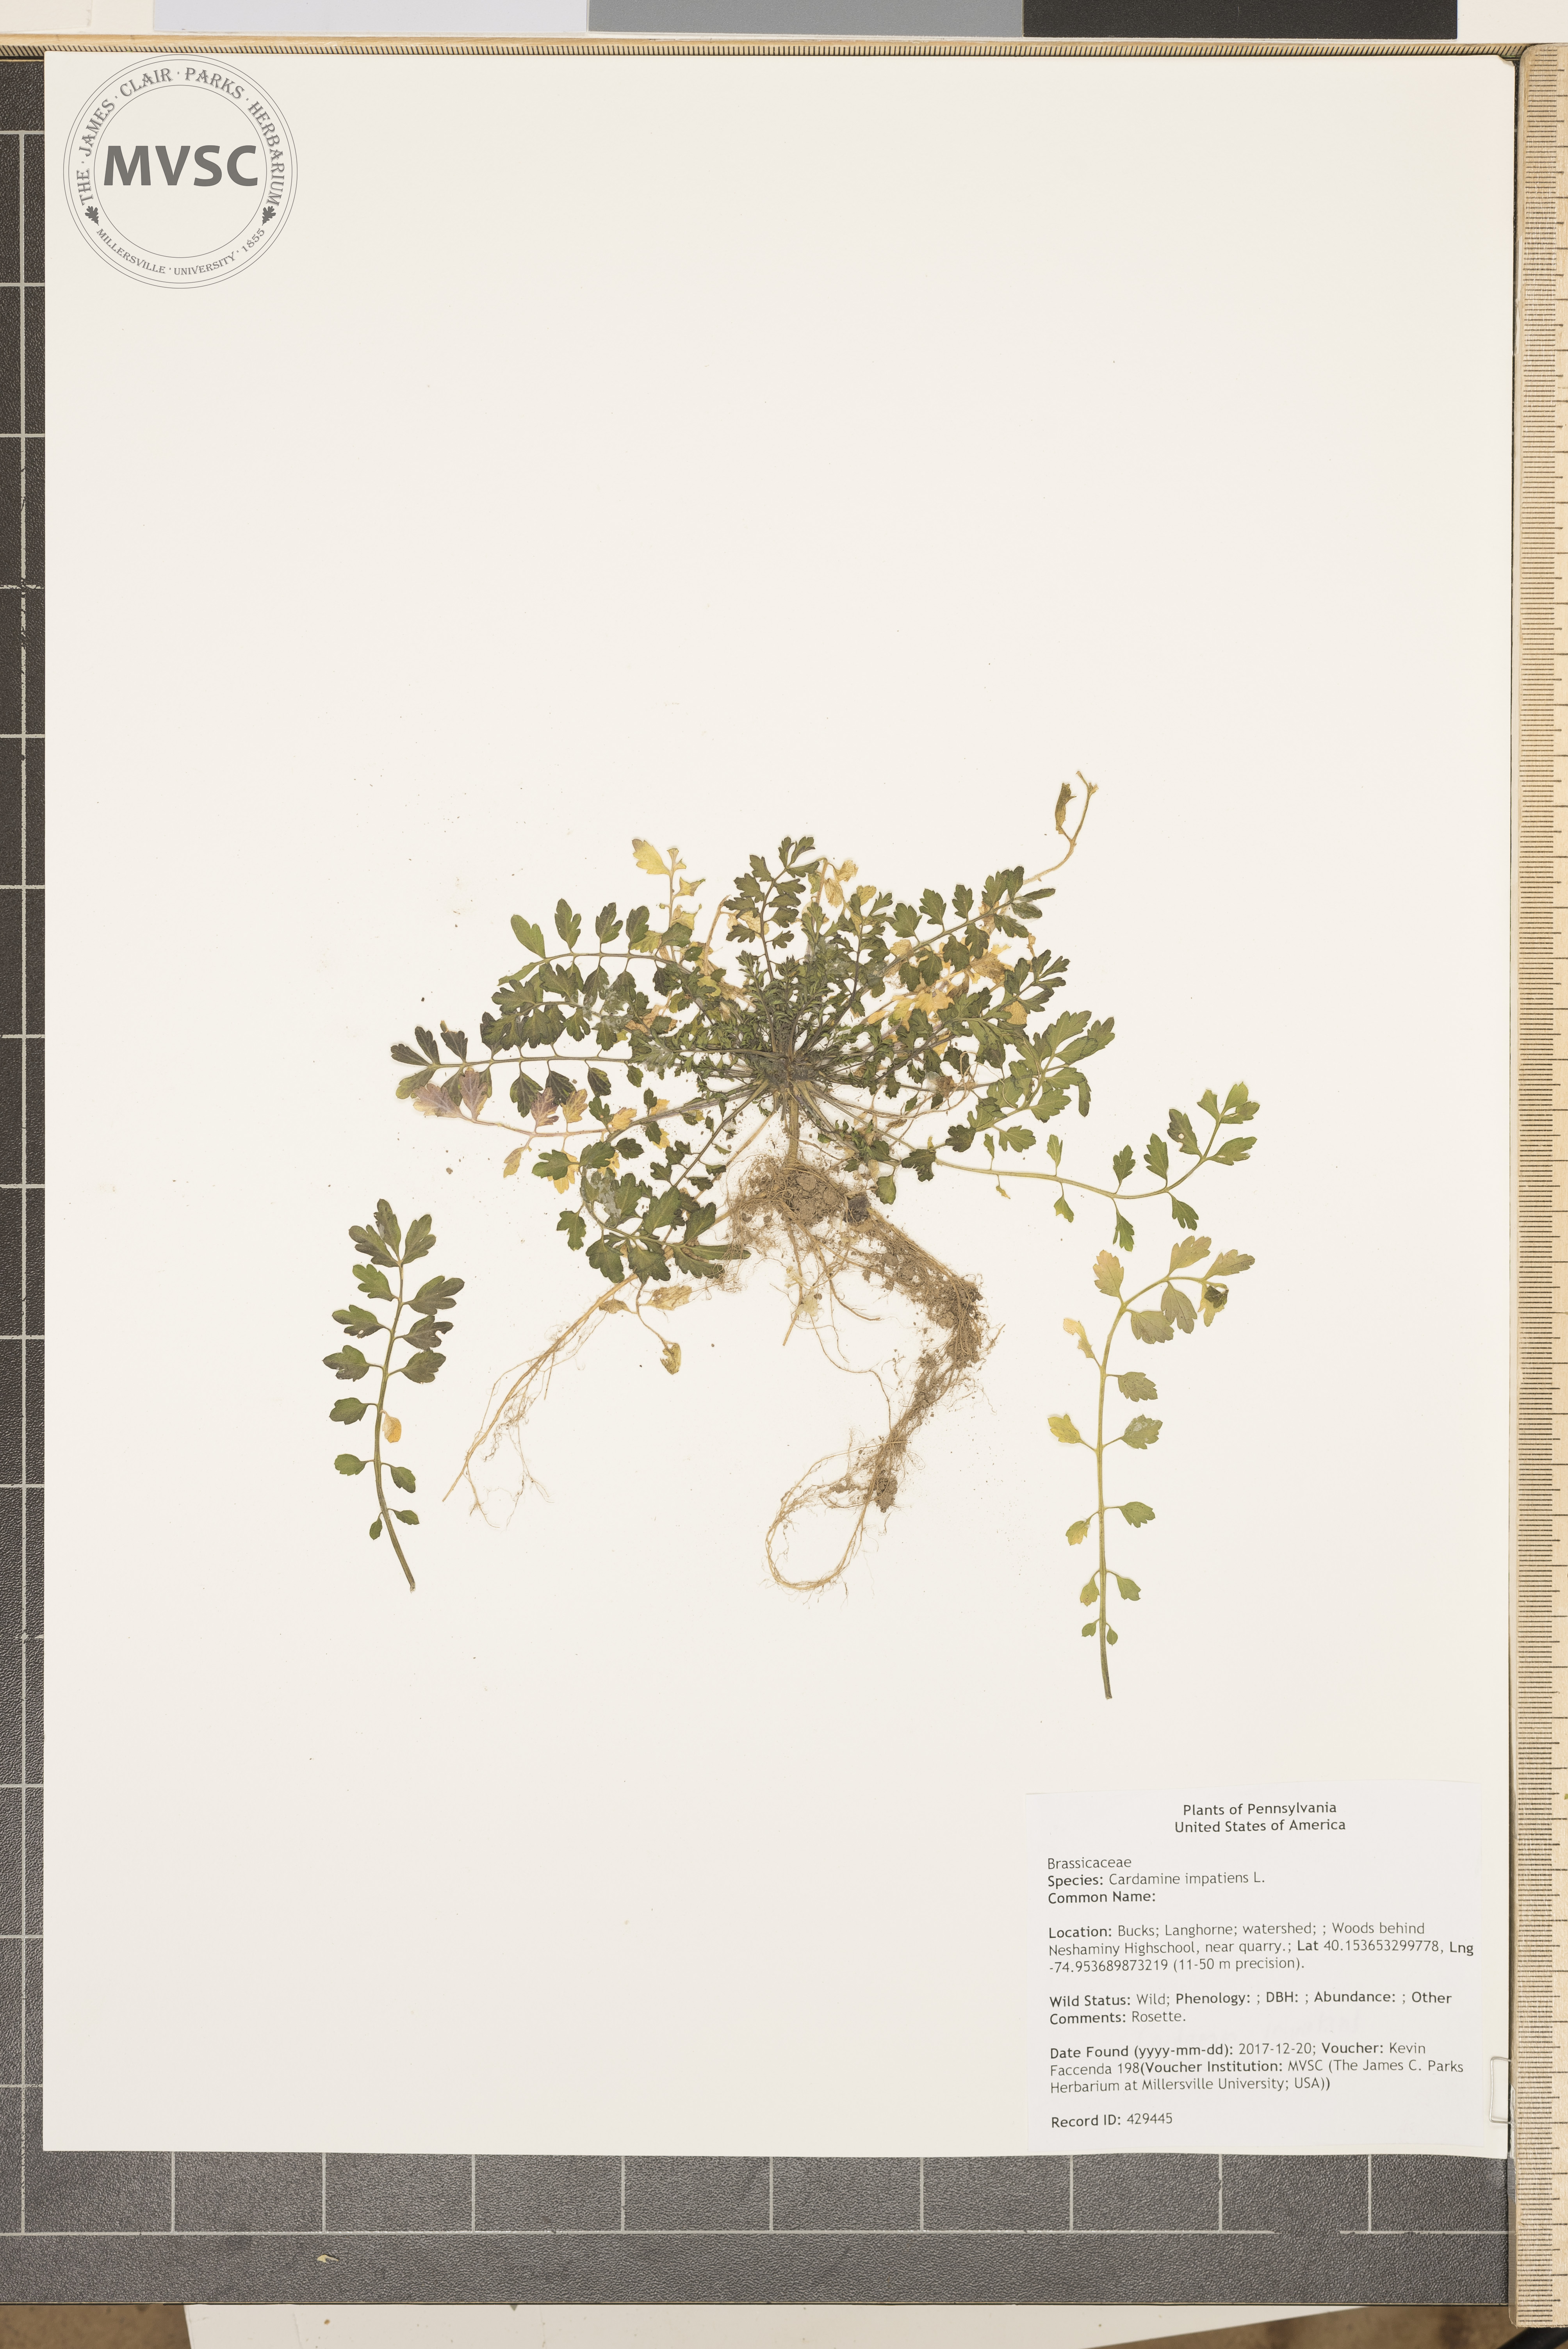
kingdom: Plantae
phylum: Tracheophyta
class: Magnoliopsida
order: Brassicales
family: Brassicaceae
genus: Cardamine
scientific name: Cardamine impatiens
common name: Narrow-leaved bitter-cress
